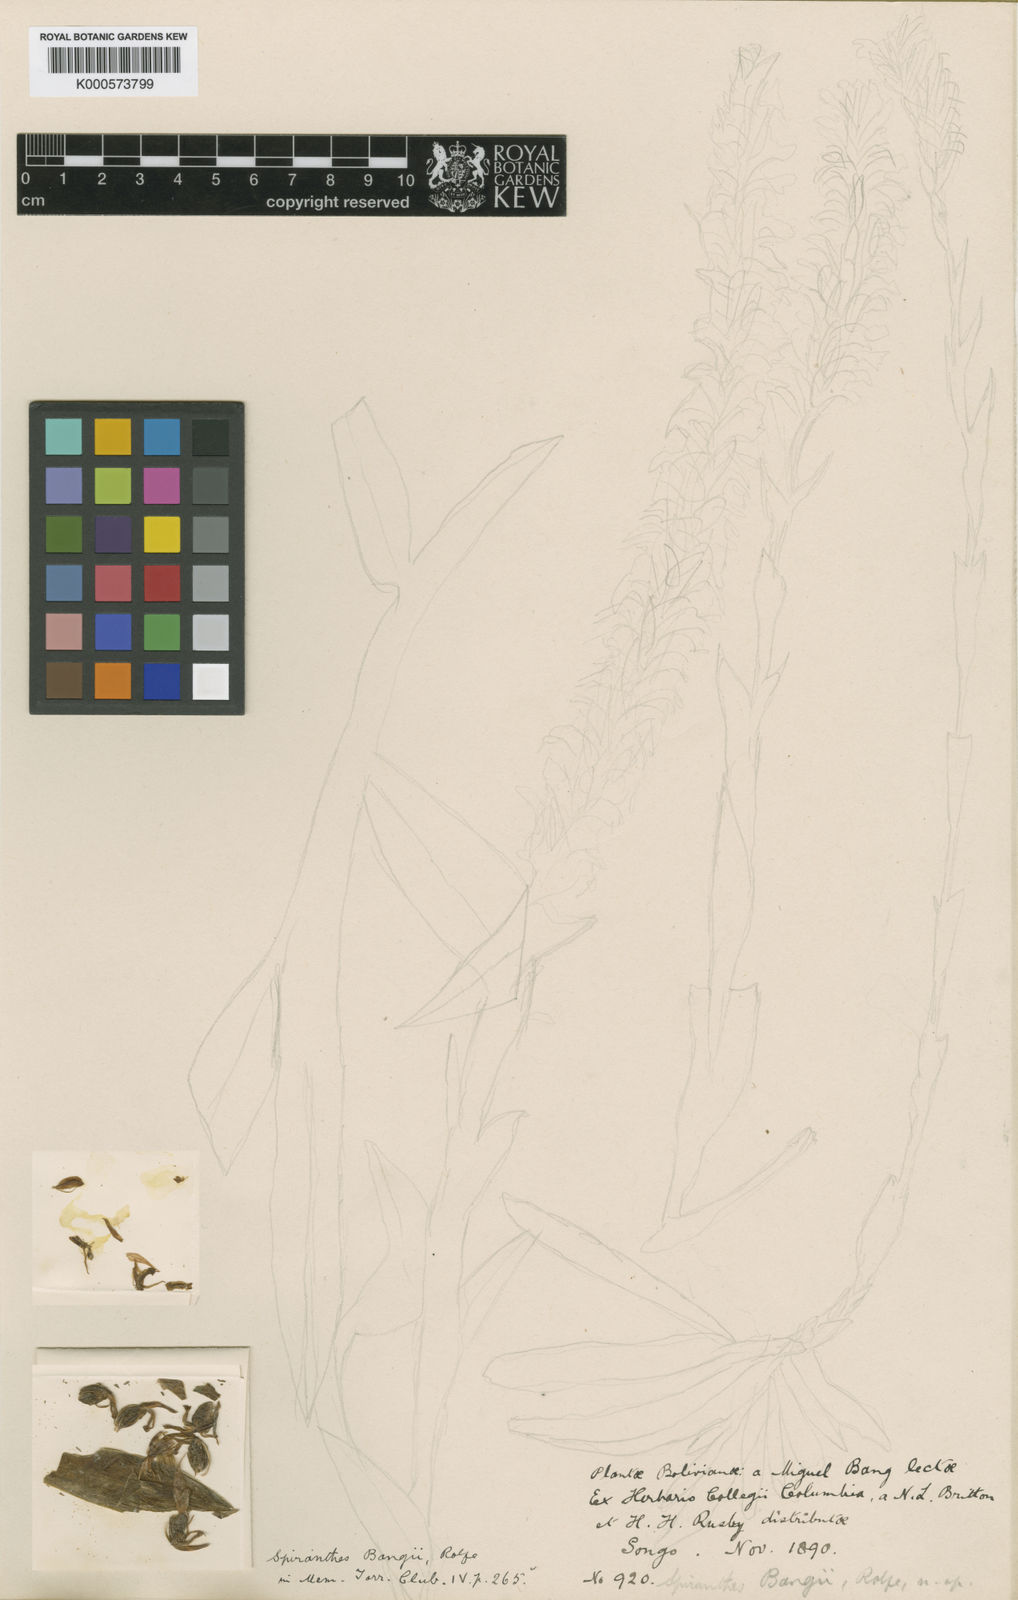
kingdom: Plantae
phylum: Tracheophyta
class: Liliopsida
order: Asparagales
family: Orchidaceae
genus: Odontorrhynchus
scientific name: Odontorrhynchus
